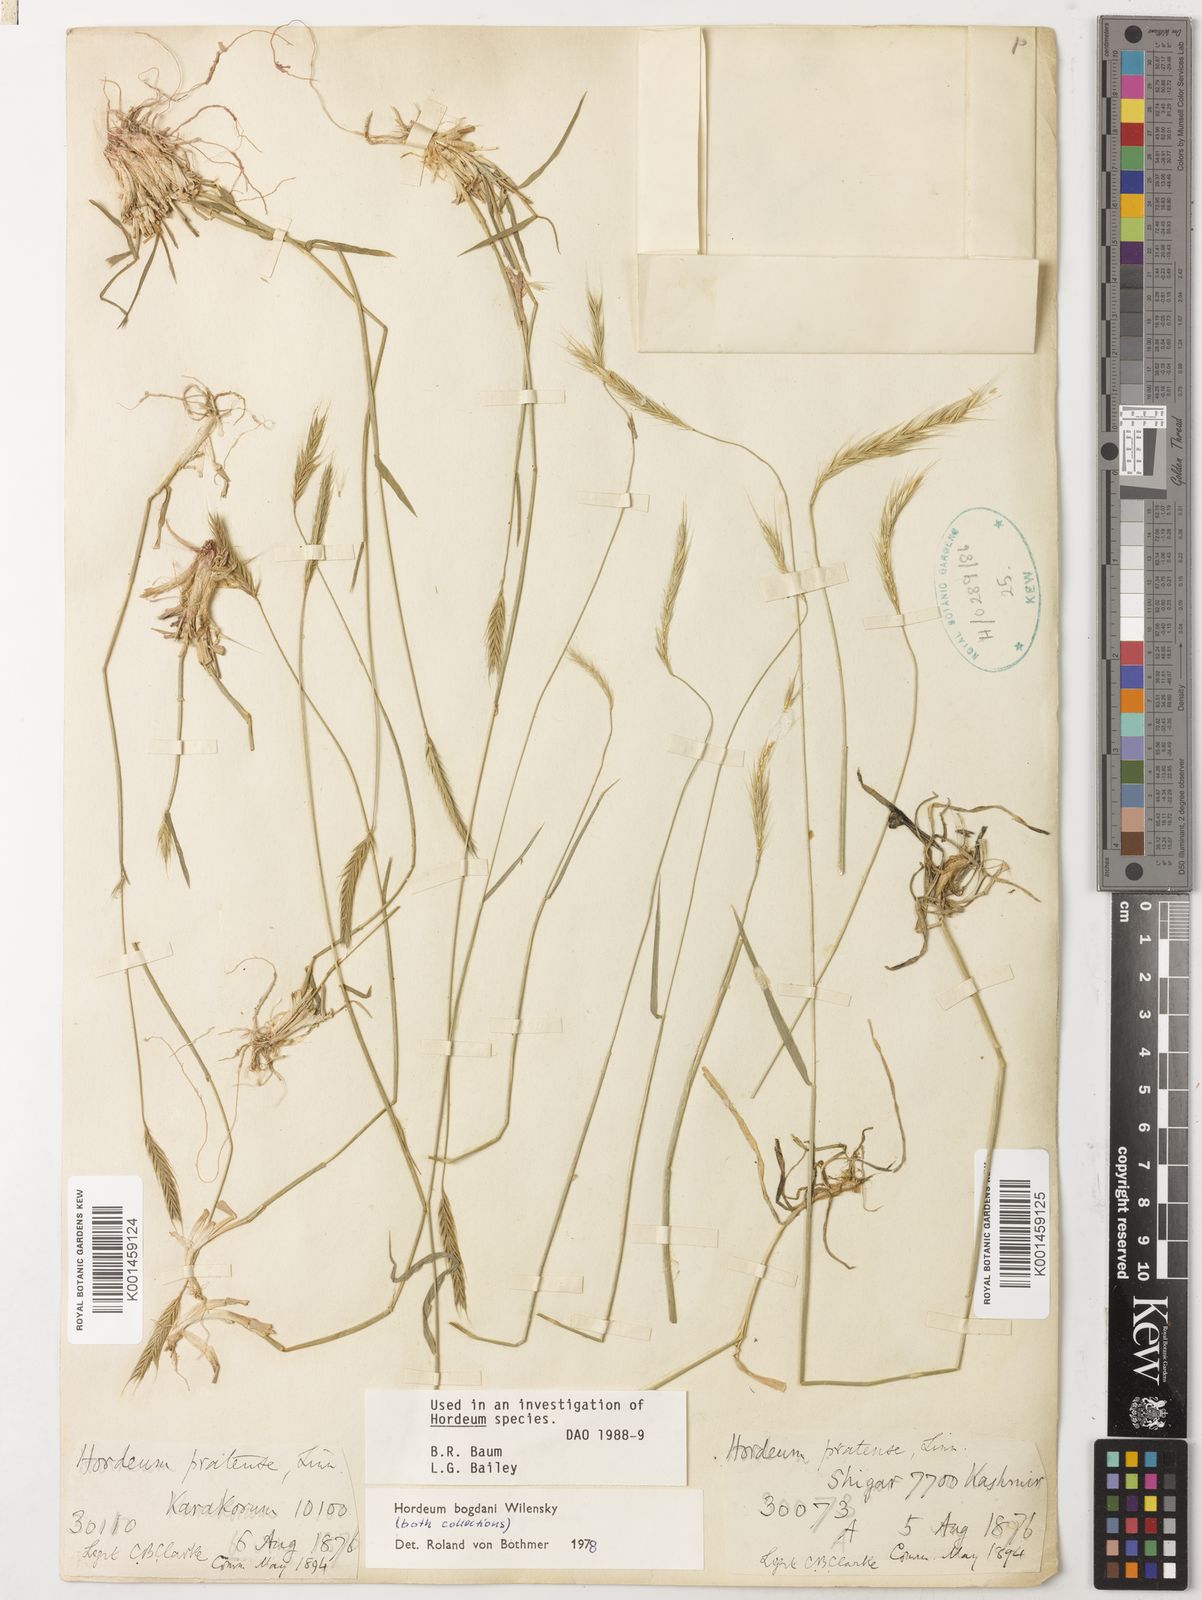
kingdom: Plantae
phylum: Tracheophyta
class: Liliopsida
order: Poales
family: Poaceae
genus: Hordeum
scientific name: Hordeum bogdanii
